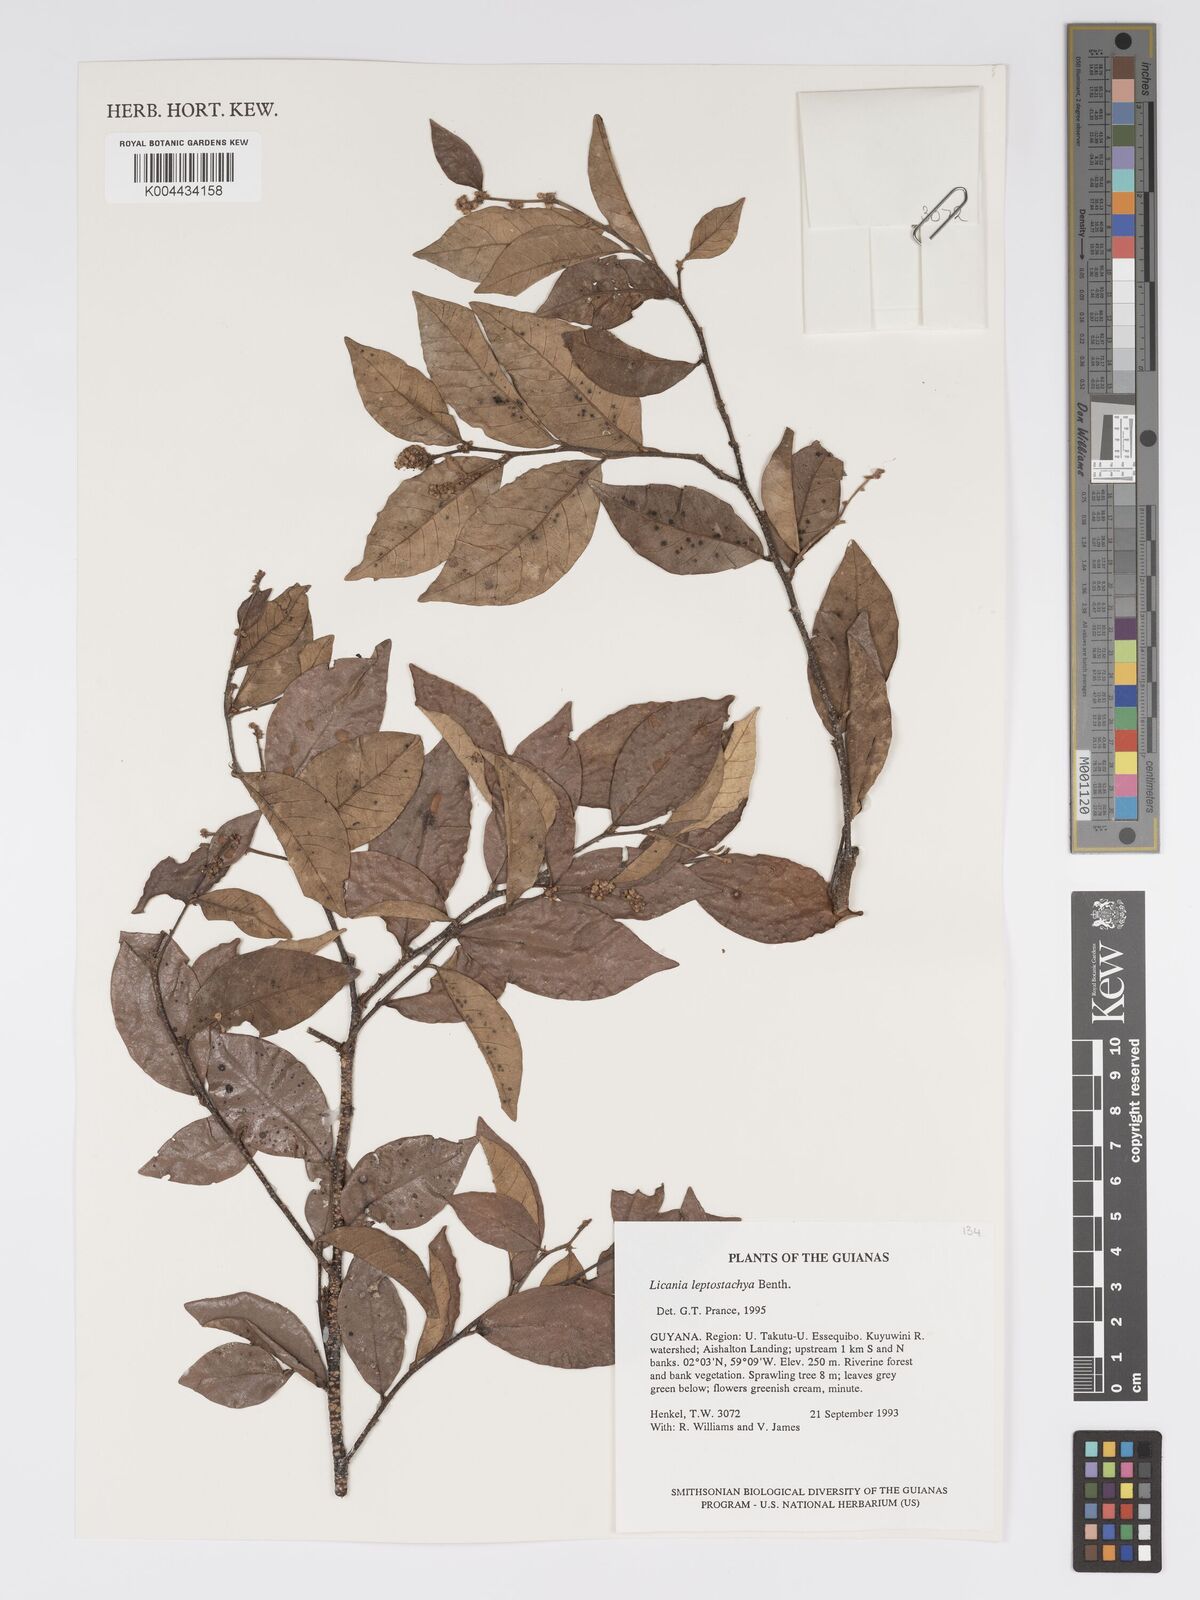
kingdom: Plantae
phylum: Tracheophyta
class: Magnoliopsida
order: Malpighiales
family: Chrysobalanaceae
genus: Licania
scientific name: Licania leptostachya
